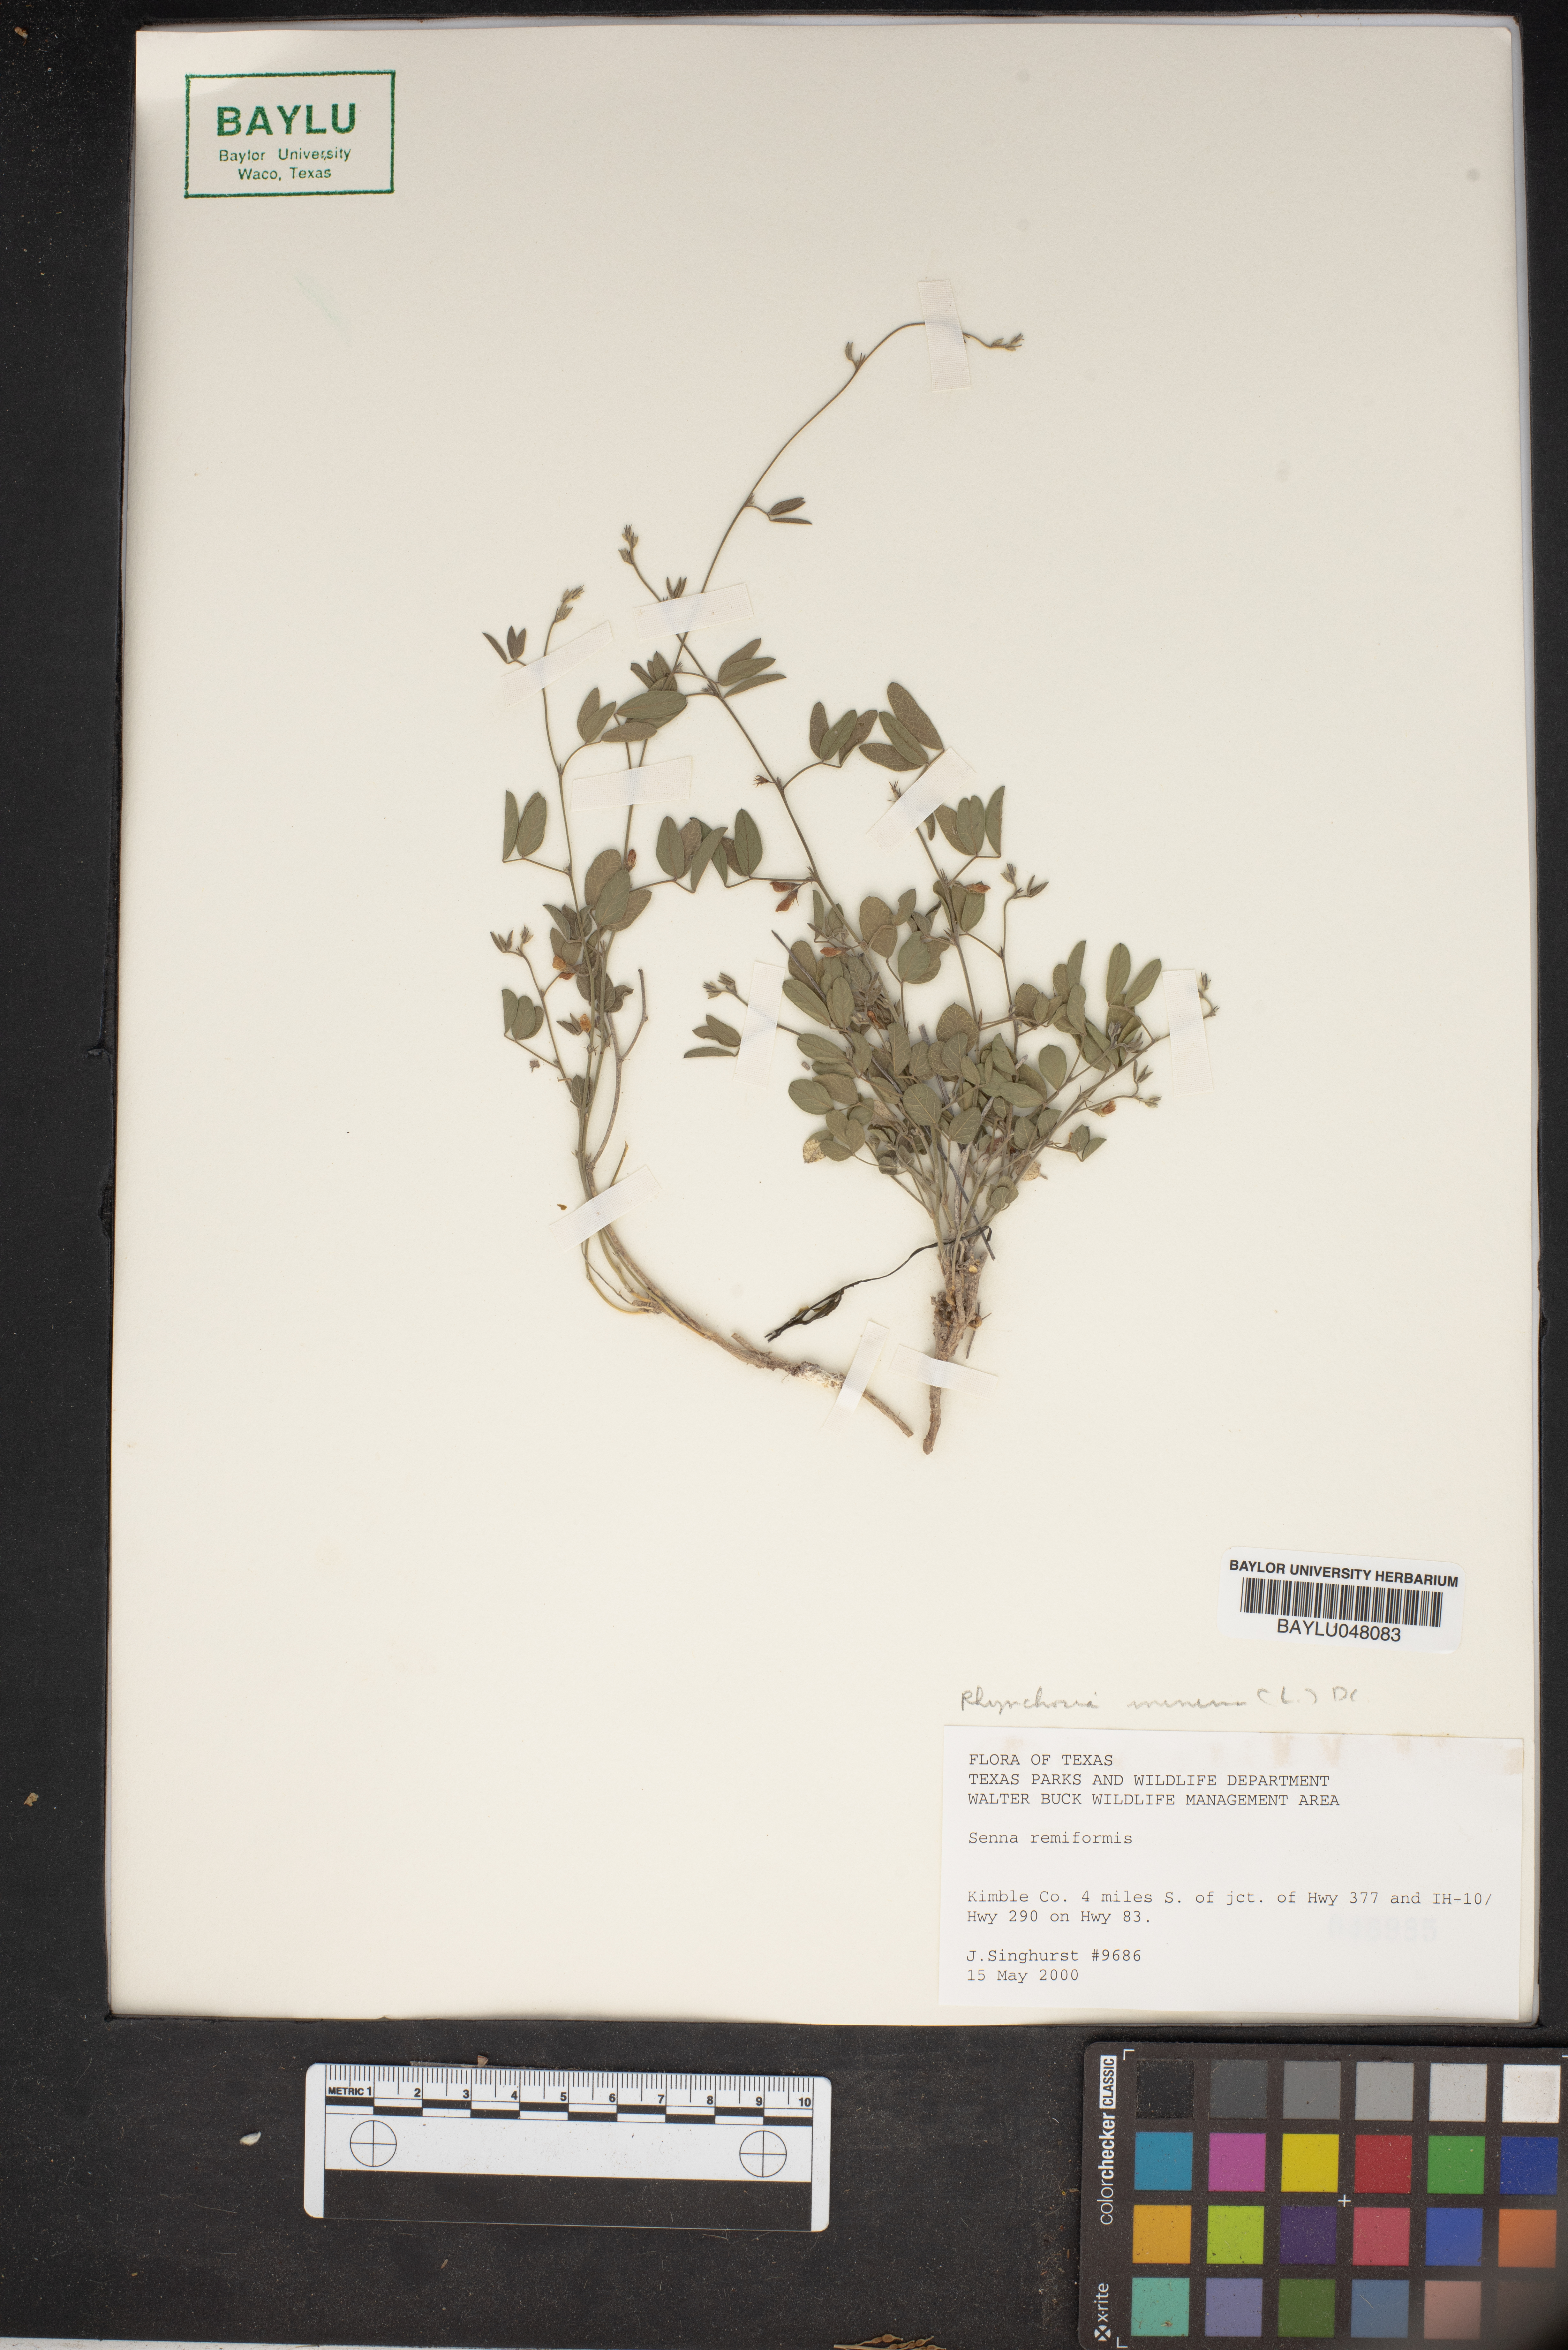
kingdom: Plantae
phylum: Tracheophyta
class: Magnoliopsida
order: Fabales
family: Fabaceae
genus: Rhynchosia
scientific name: Rhynchosia minima
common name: Least snoutbean
